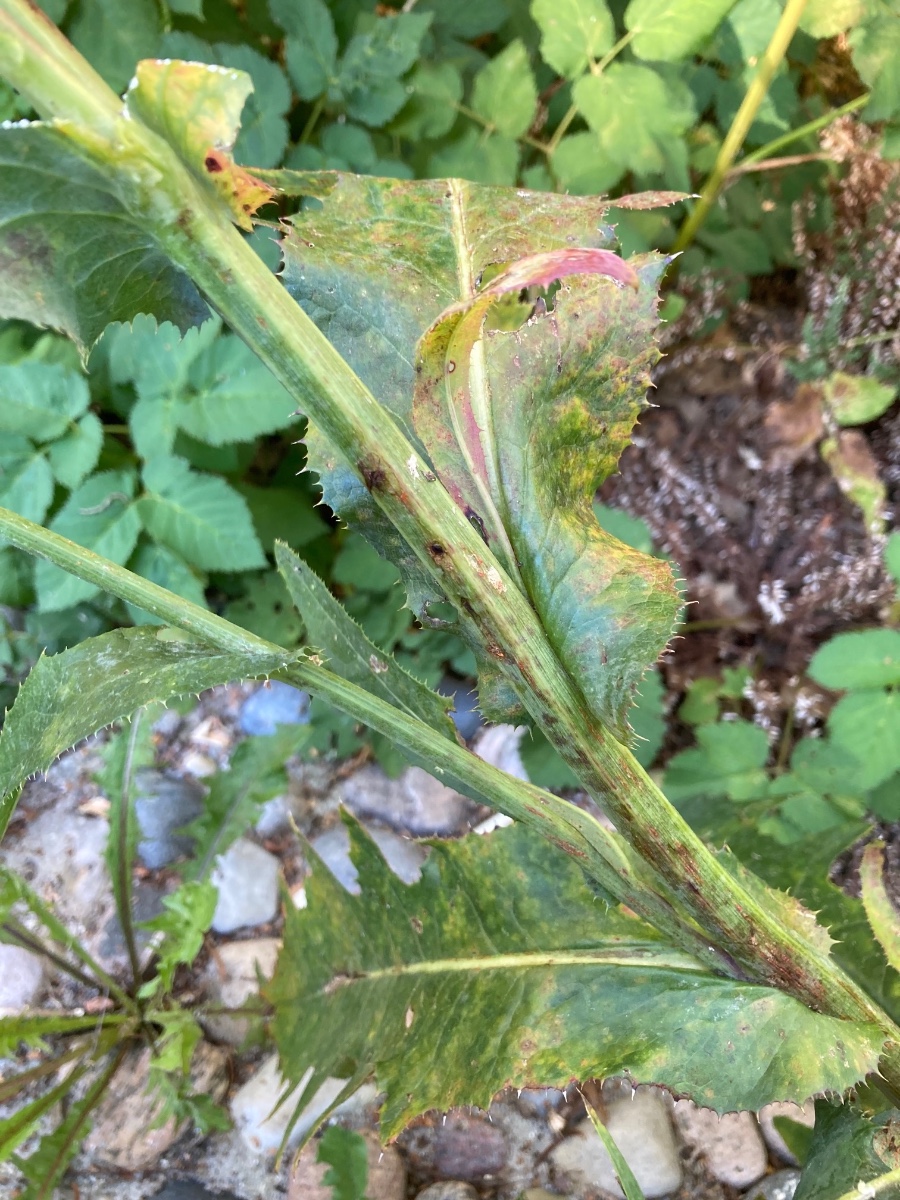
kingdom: Fungi
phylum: Basidiomycota
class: Pucciniomycetes
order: Pucciniales
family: Coleosporiaceae
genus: Coleosporium
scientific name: Coleosporium sonchi
